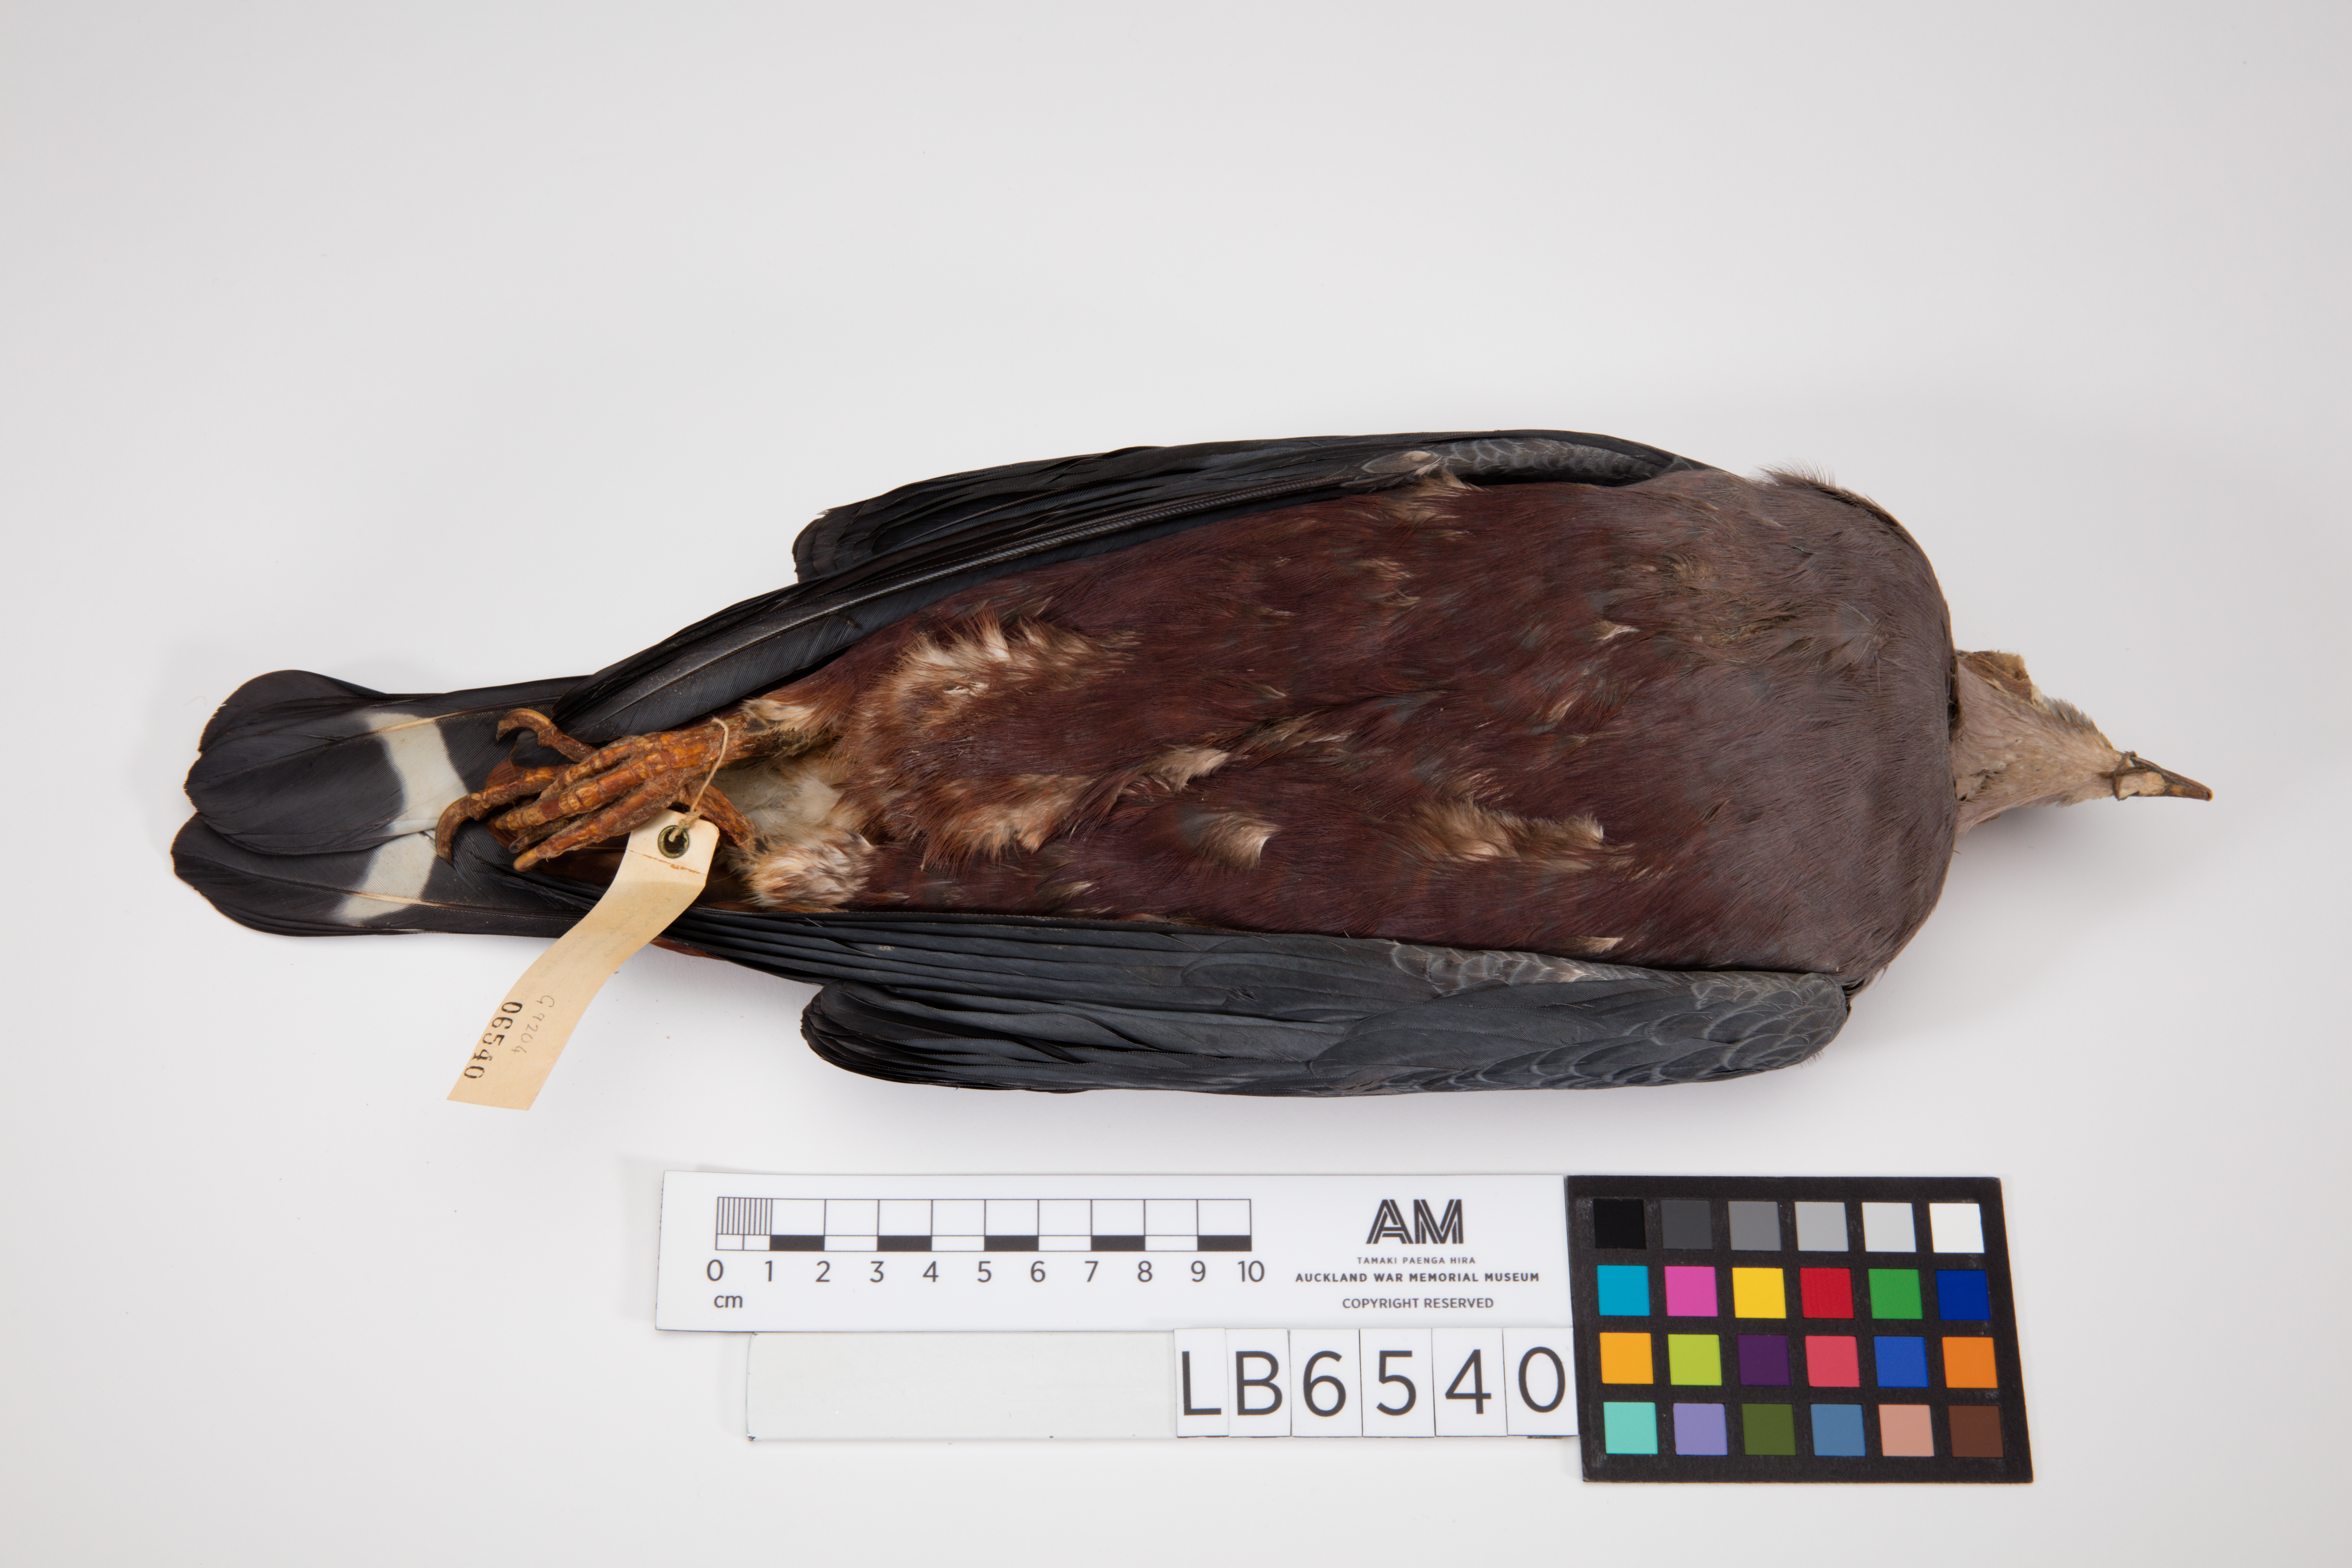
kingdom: Animalia
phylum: Chordata
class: Aves
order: Columbiformes
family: Columbidae
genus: Ducula
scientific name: Ducula pinon
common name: Pinon's imperial pigeon
